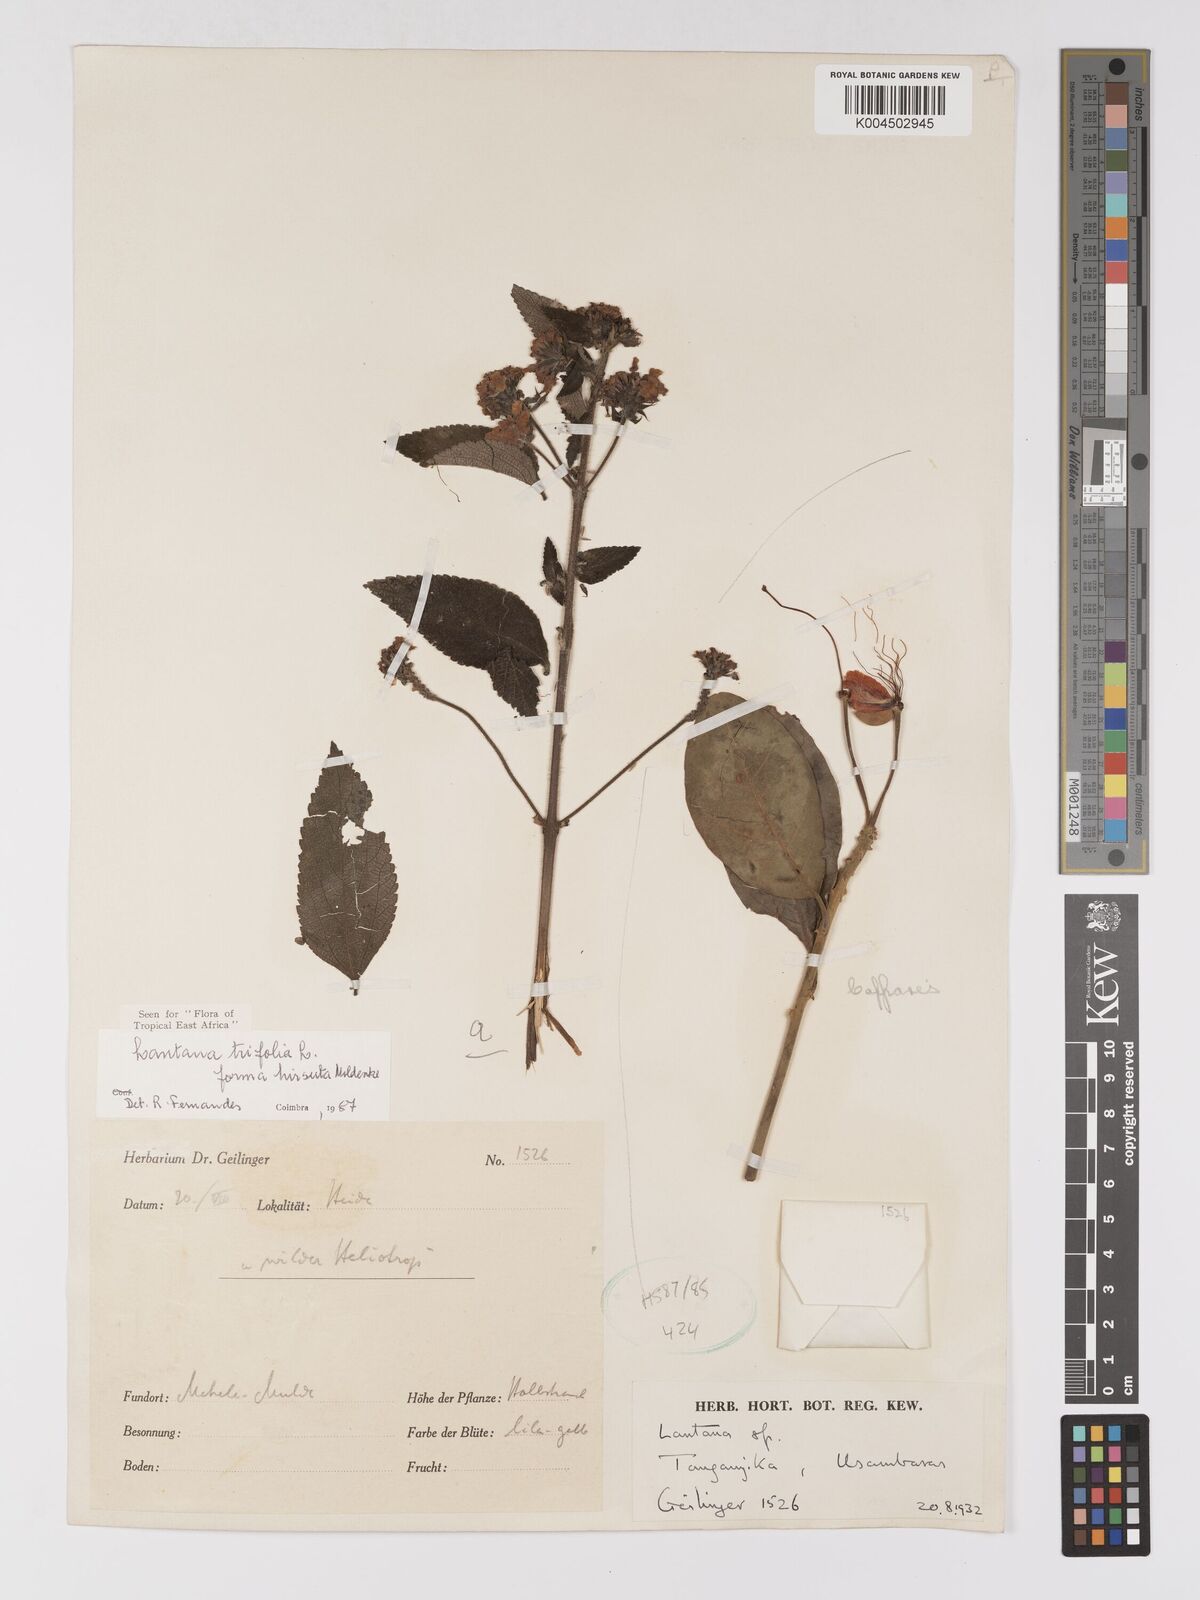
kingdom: Plantae
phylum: Tracheophyta
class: Magnoliopsida
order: Lamiales
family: Verbenaceae
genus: Lantana
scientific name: Lantana trifolia
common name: Sweet-sage
